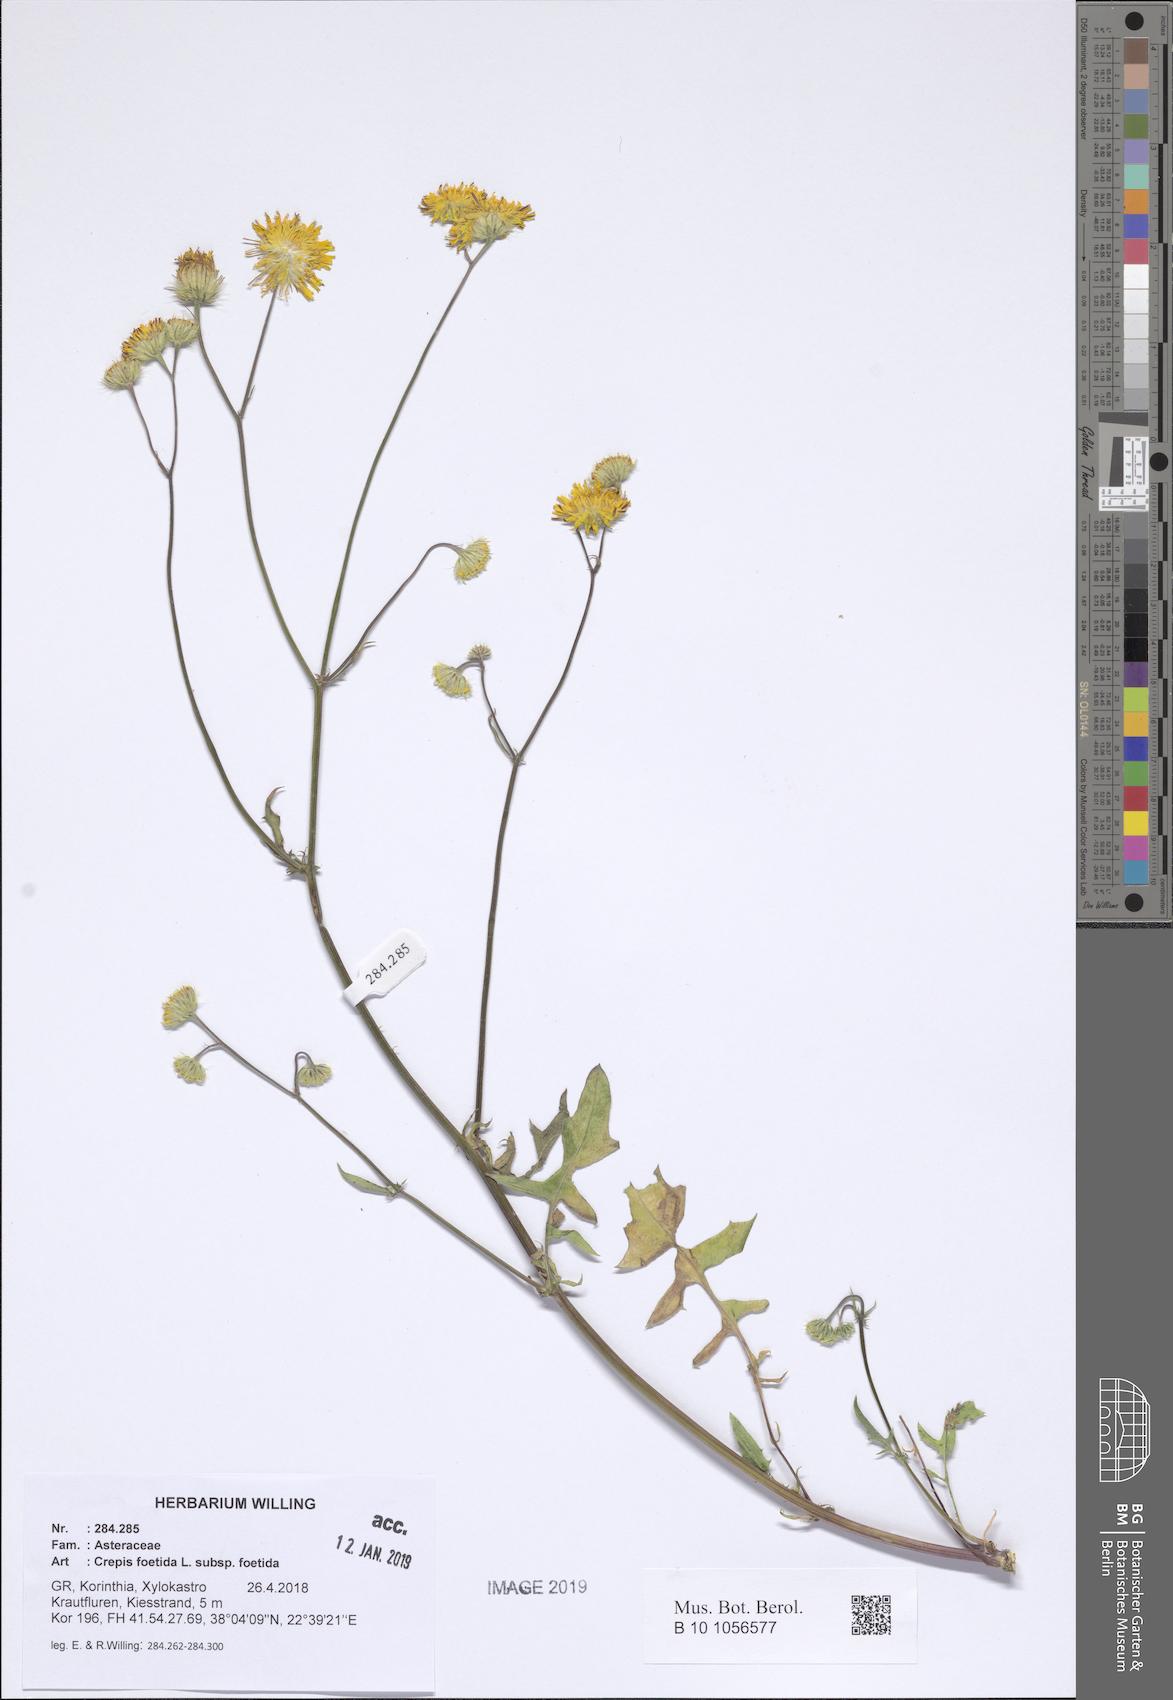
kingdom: Plantae
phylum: Tracheophyta
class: Magnoliopsida
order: Asterales
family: Asteraceae
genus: Crepis
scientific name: Crepis foetida
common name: Stinking hawk's-beard
